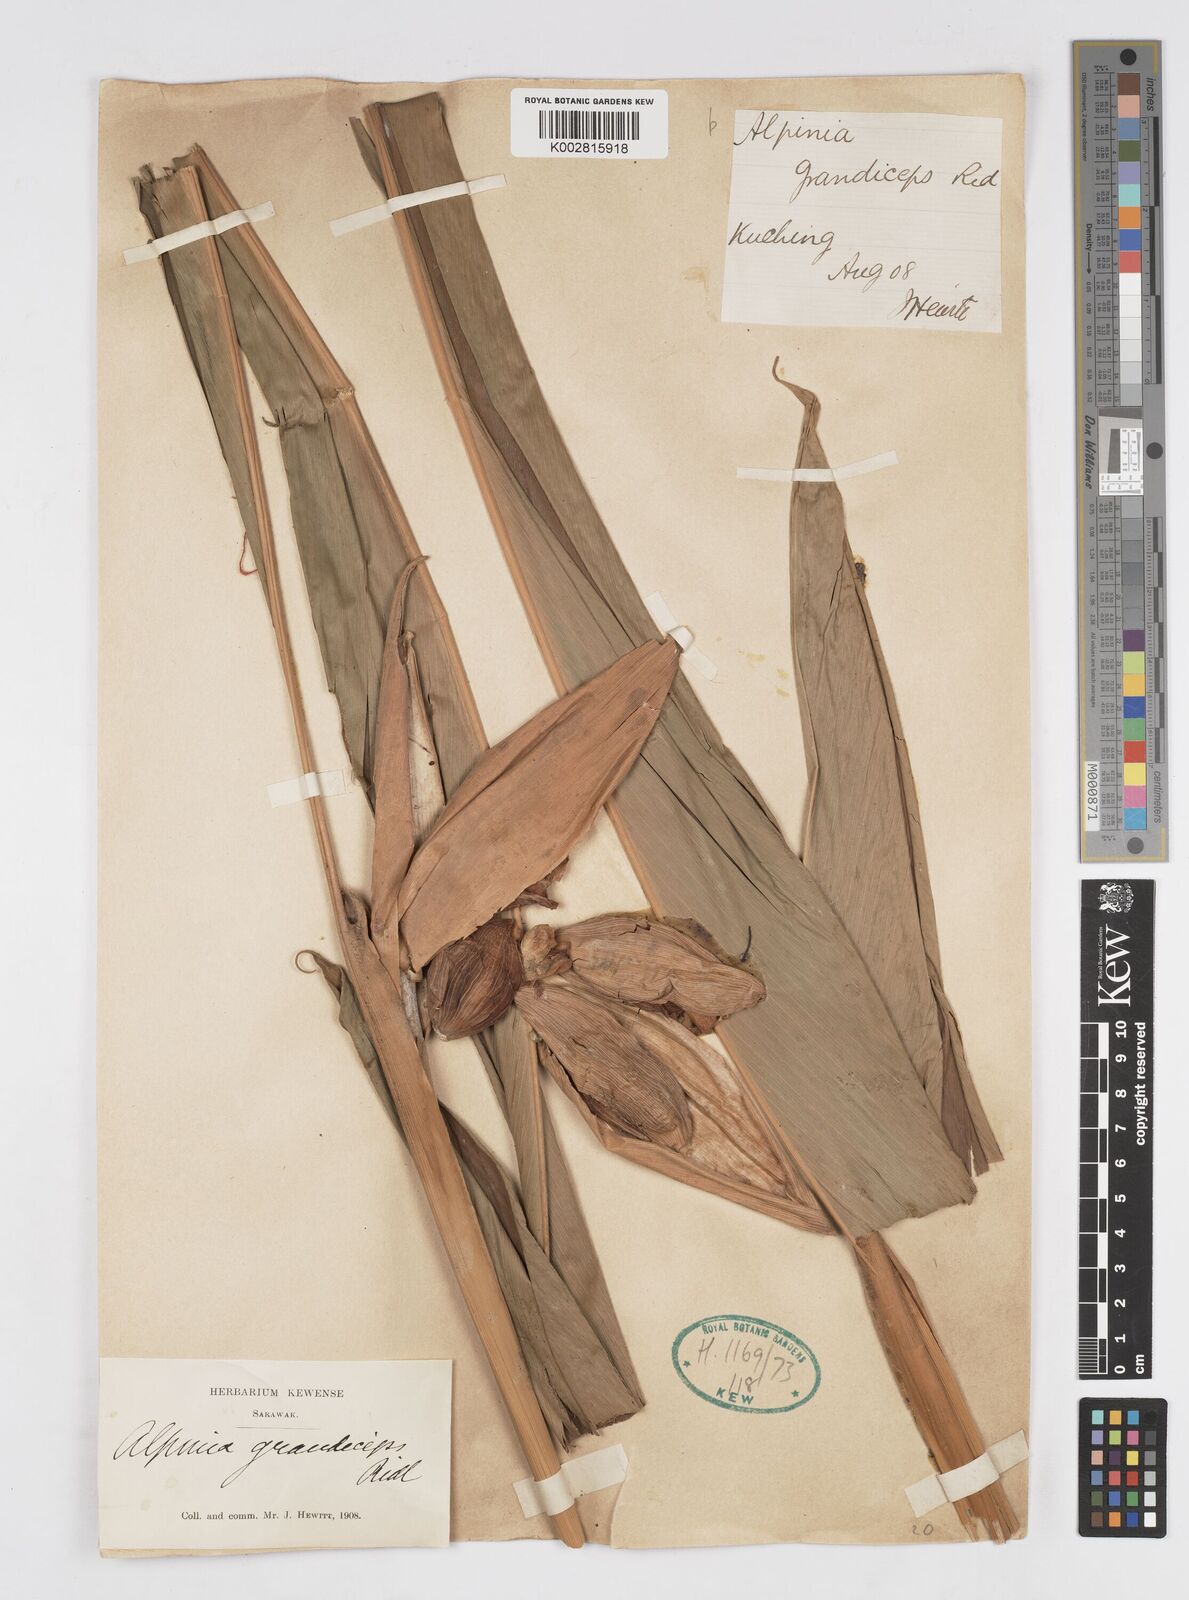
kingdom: Plantae
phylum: Tracheophyta
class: Liliopsida
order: Zingiberales
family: Zingiberaceae
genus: Alpinia
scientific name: Alpinia capitellata
